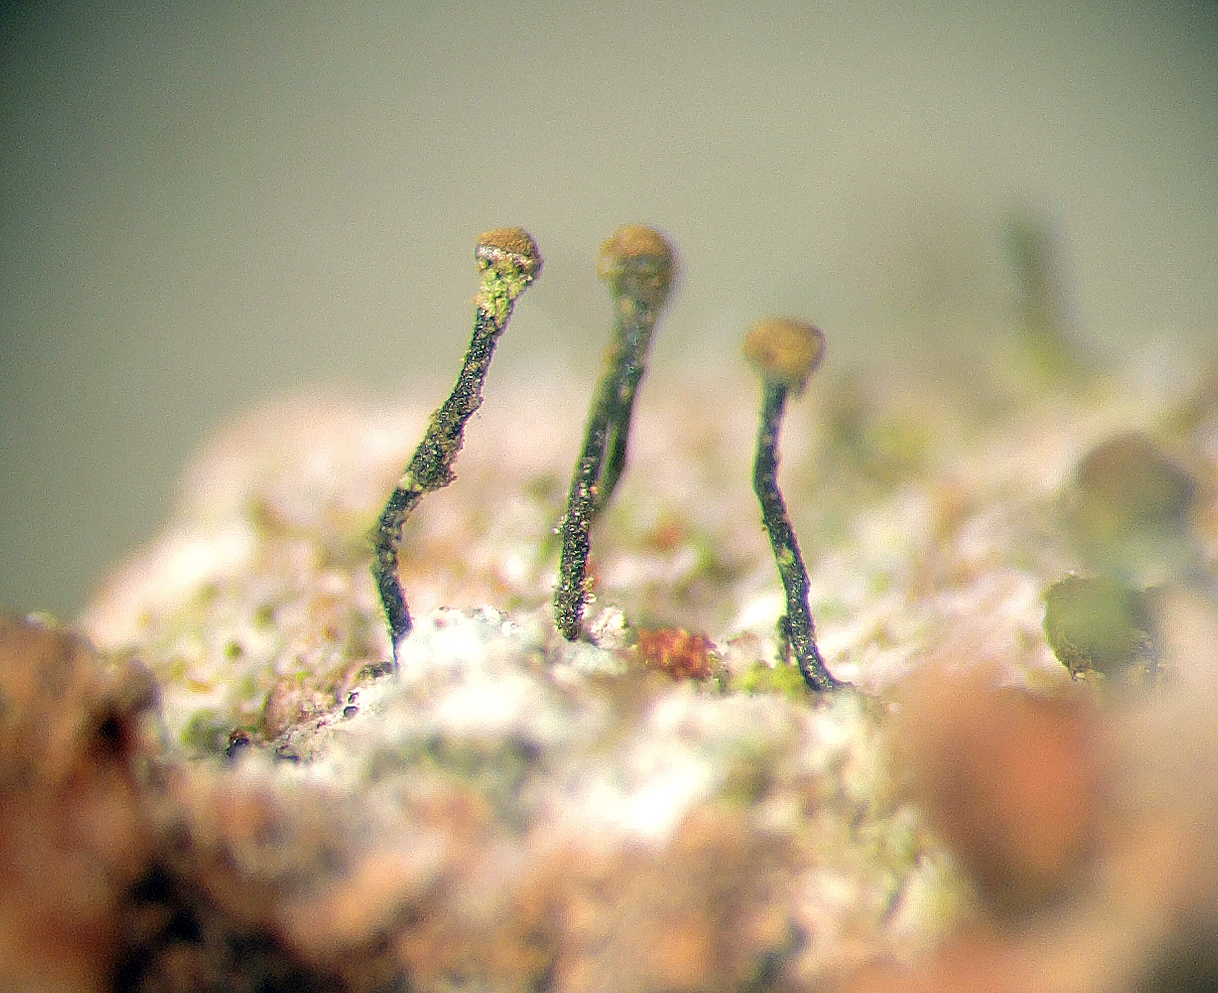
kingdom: Fungi
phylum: Ascomycota
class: Coniocybomycetes
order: Coniocybales
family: Coniocybaceae
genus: Chaenotheca
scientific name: Chaenotheca trichialis
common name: grå knappenålslav
